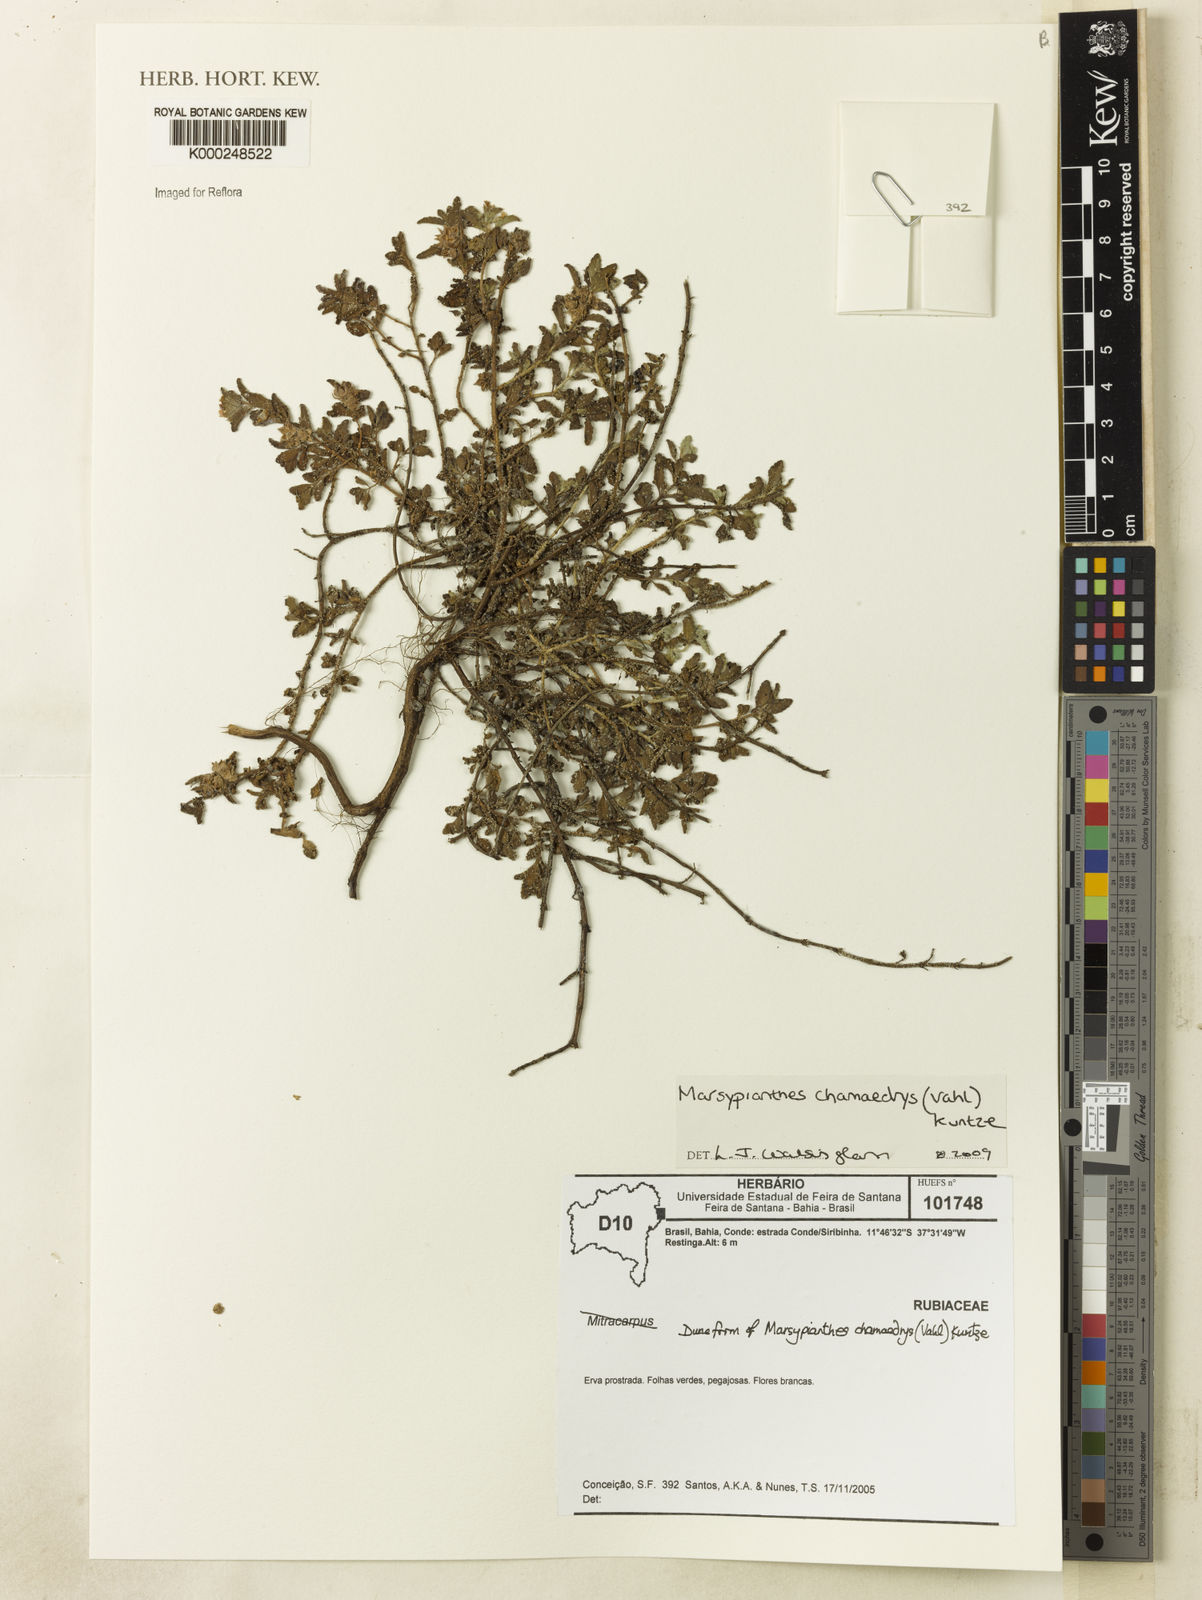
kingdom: Plantae
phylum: Tracheophyta
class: Magnoliopsida
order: Lamiales
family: Lamiaceae
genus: Marsypianthes
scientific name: Marsypianthes chamaedrys
